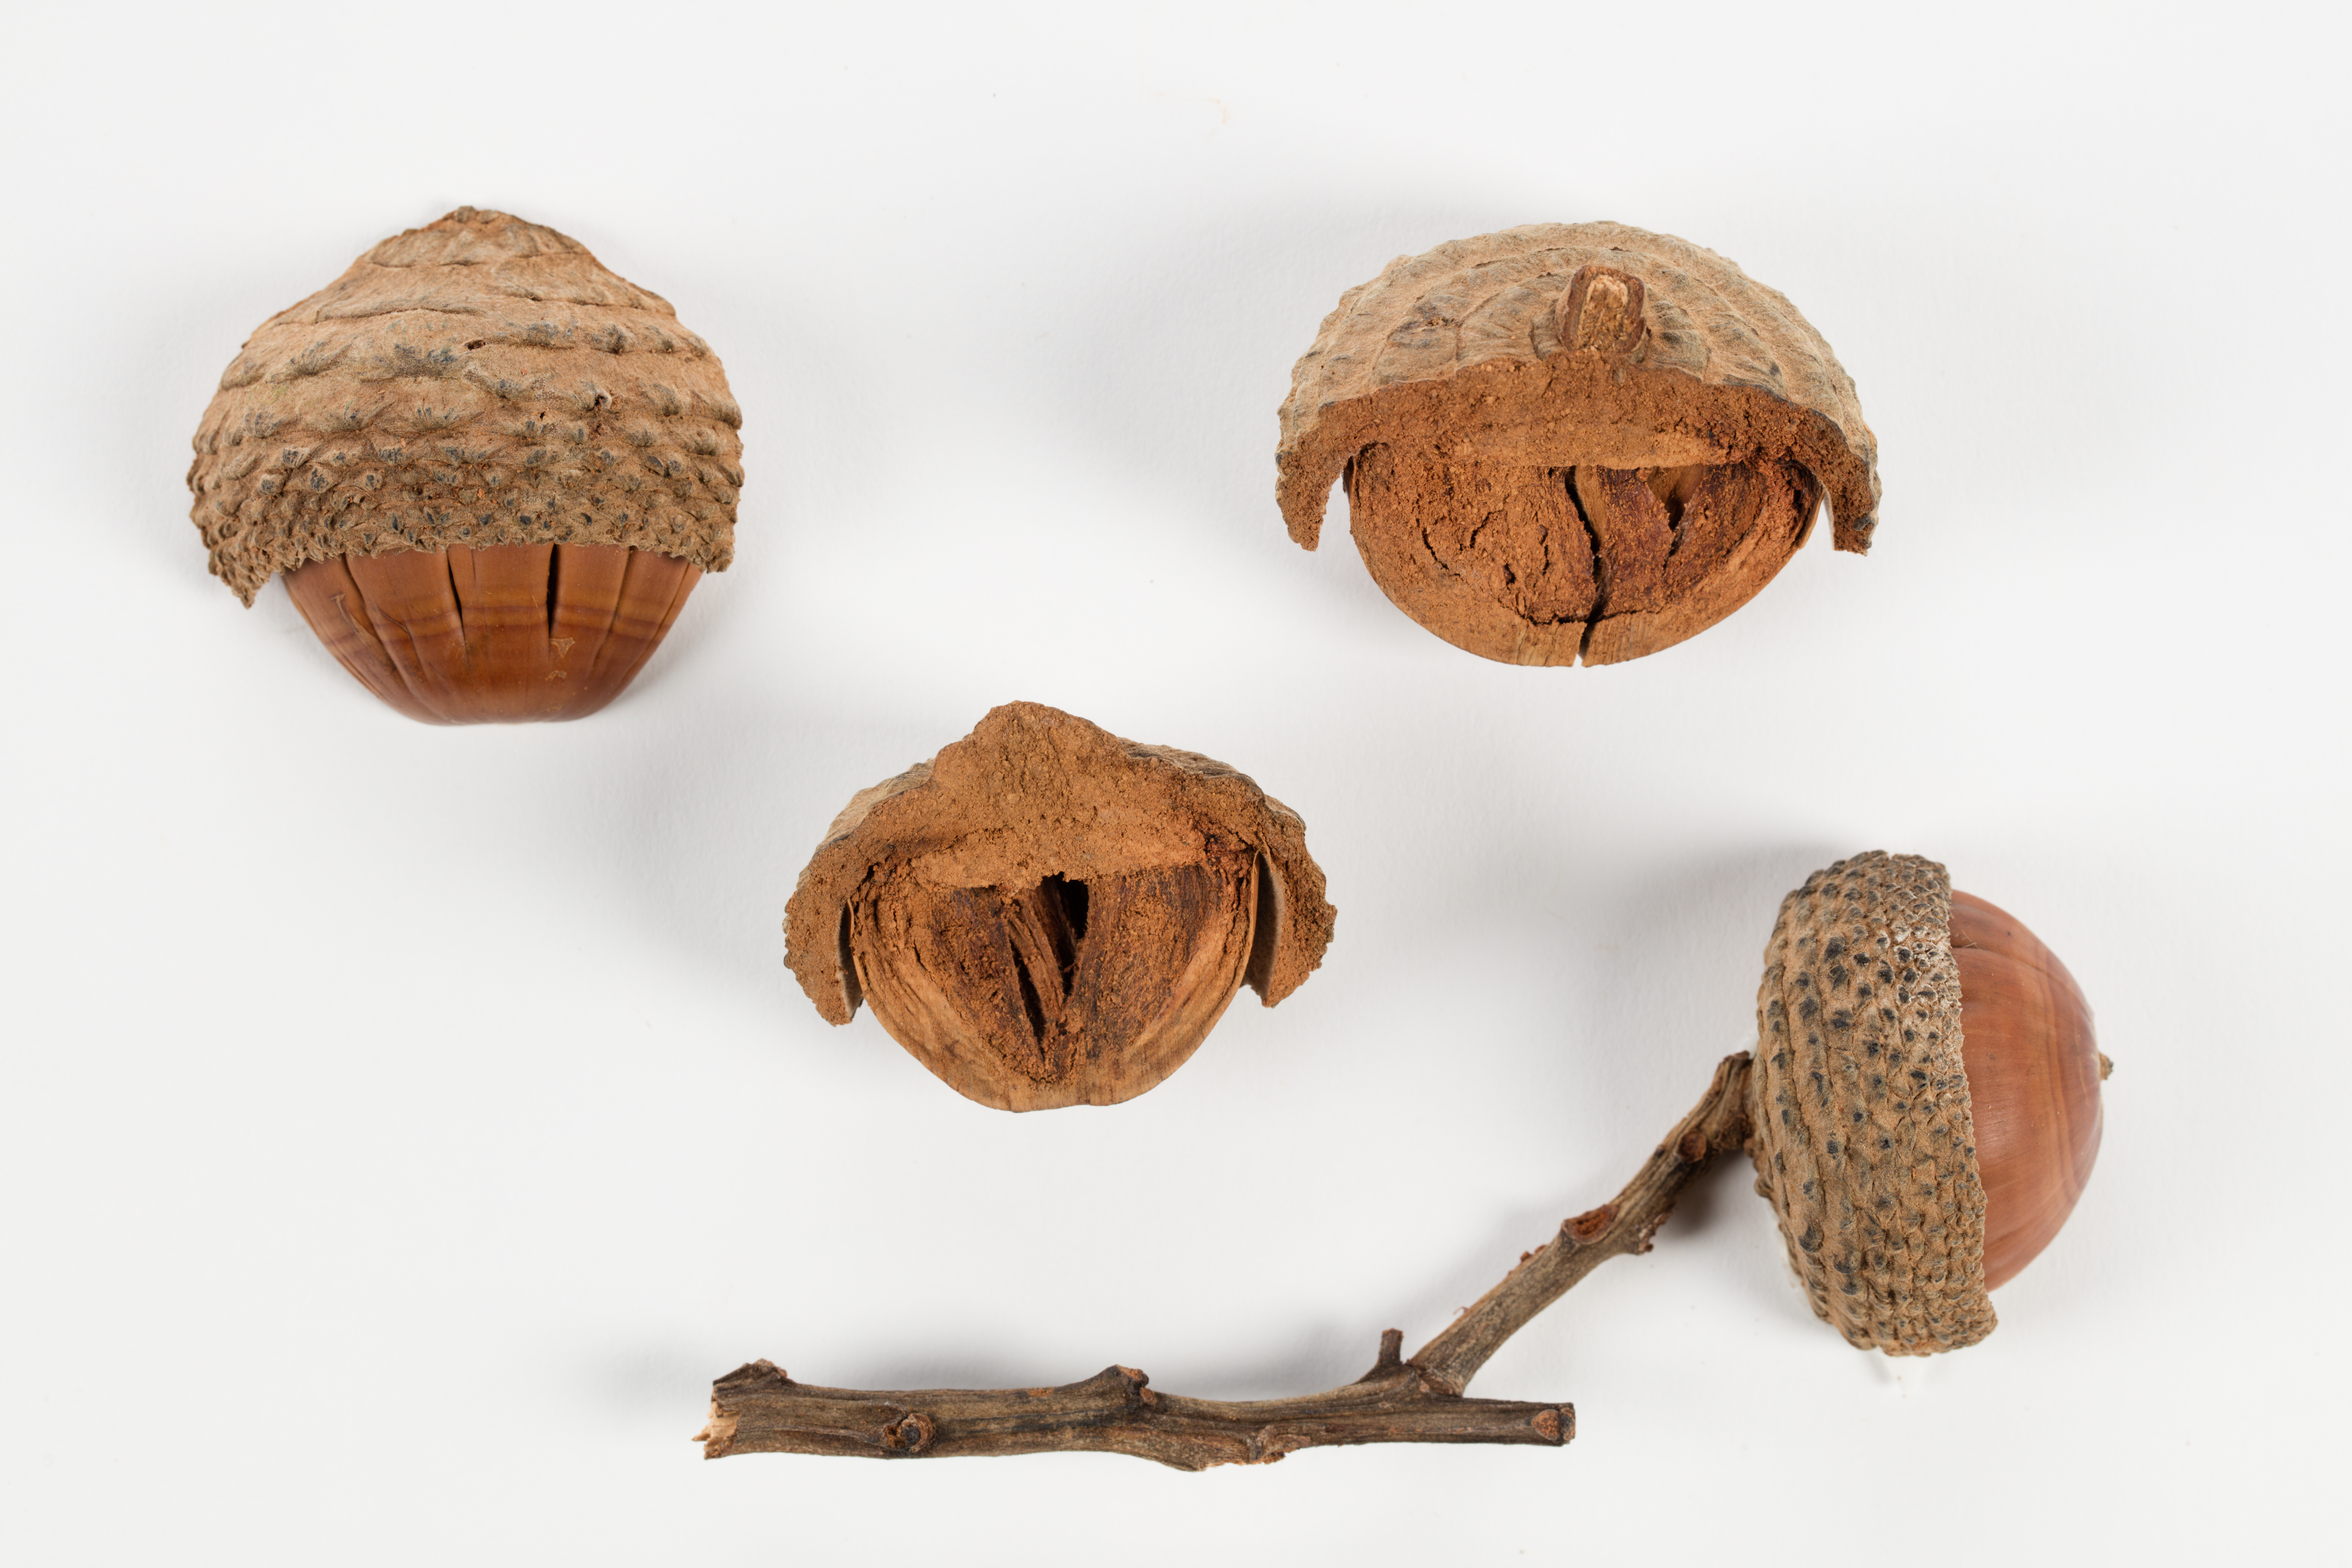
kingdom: Plantae
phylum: Tracheophyta
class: Magnoliopsida
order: Fagales
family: Fagaceae
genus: Lithocarpus
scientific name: Lithocarpus
